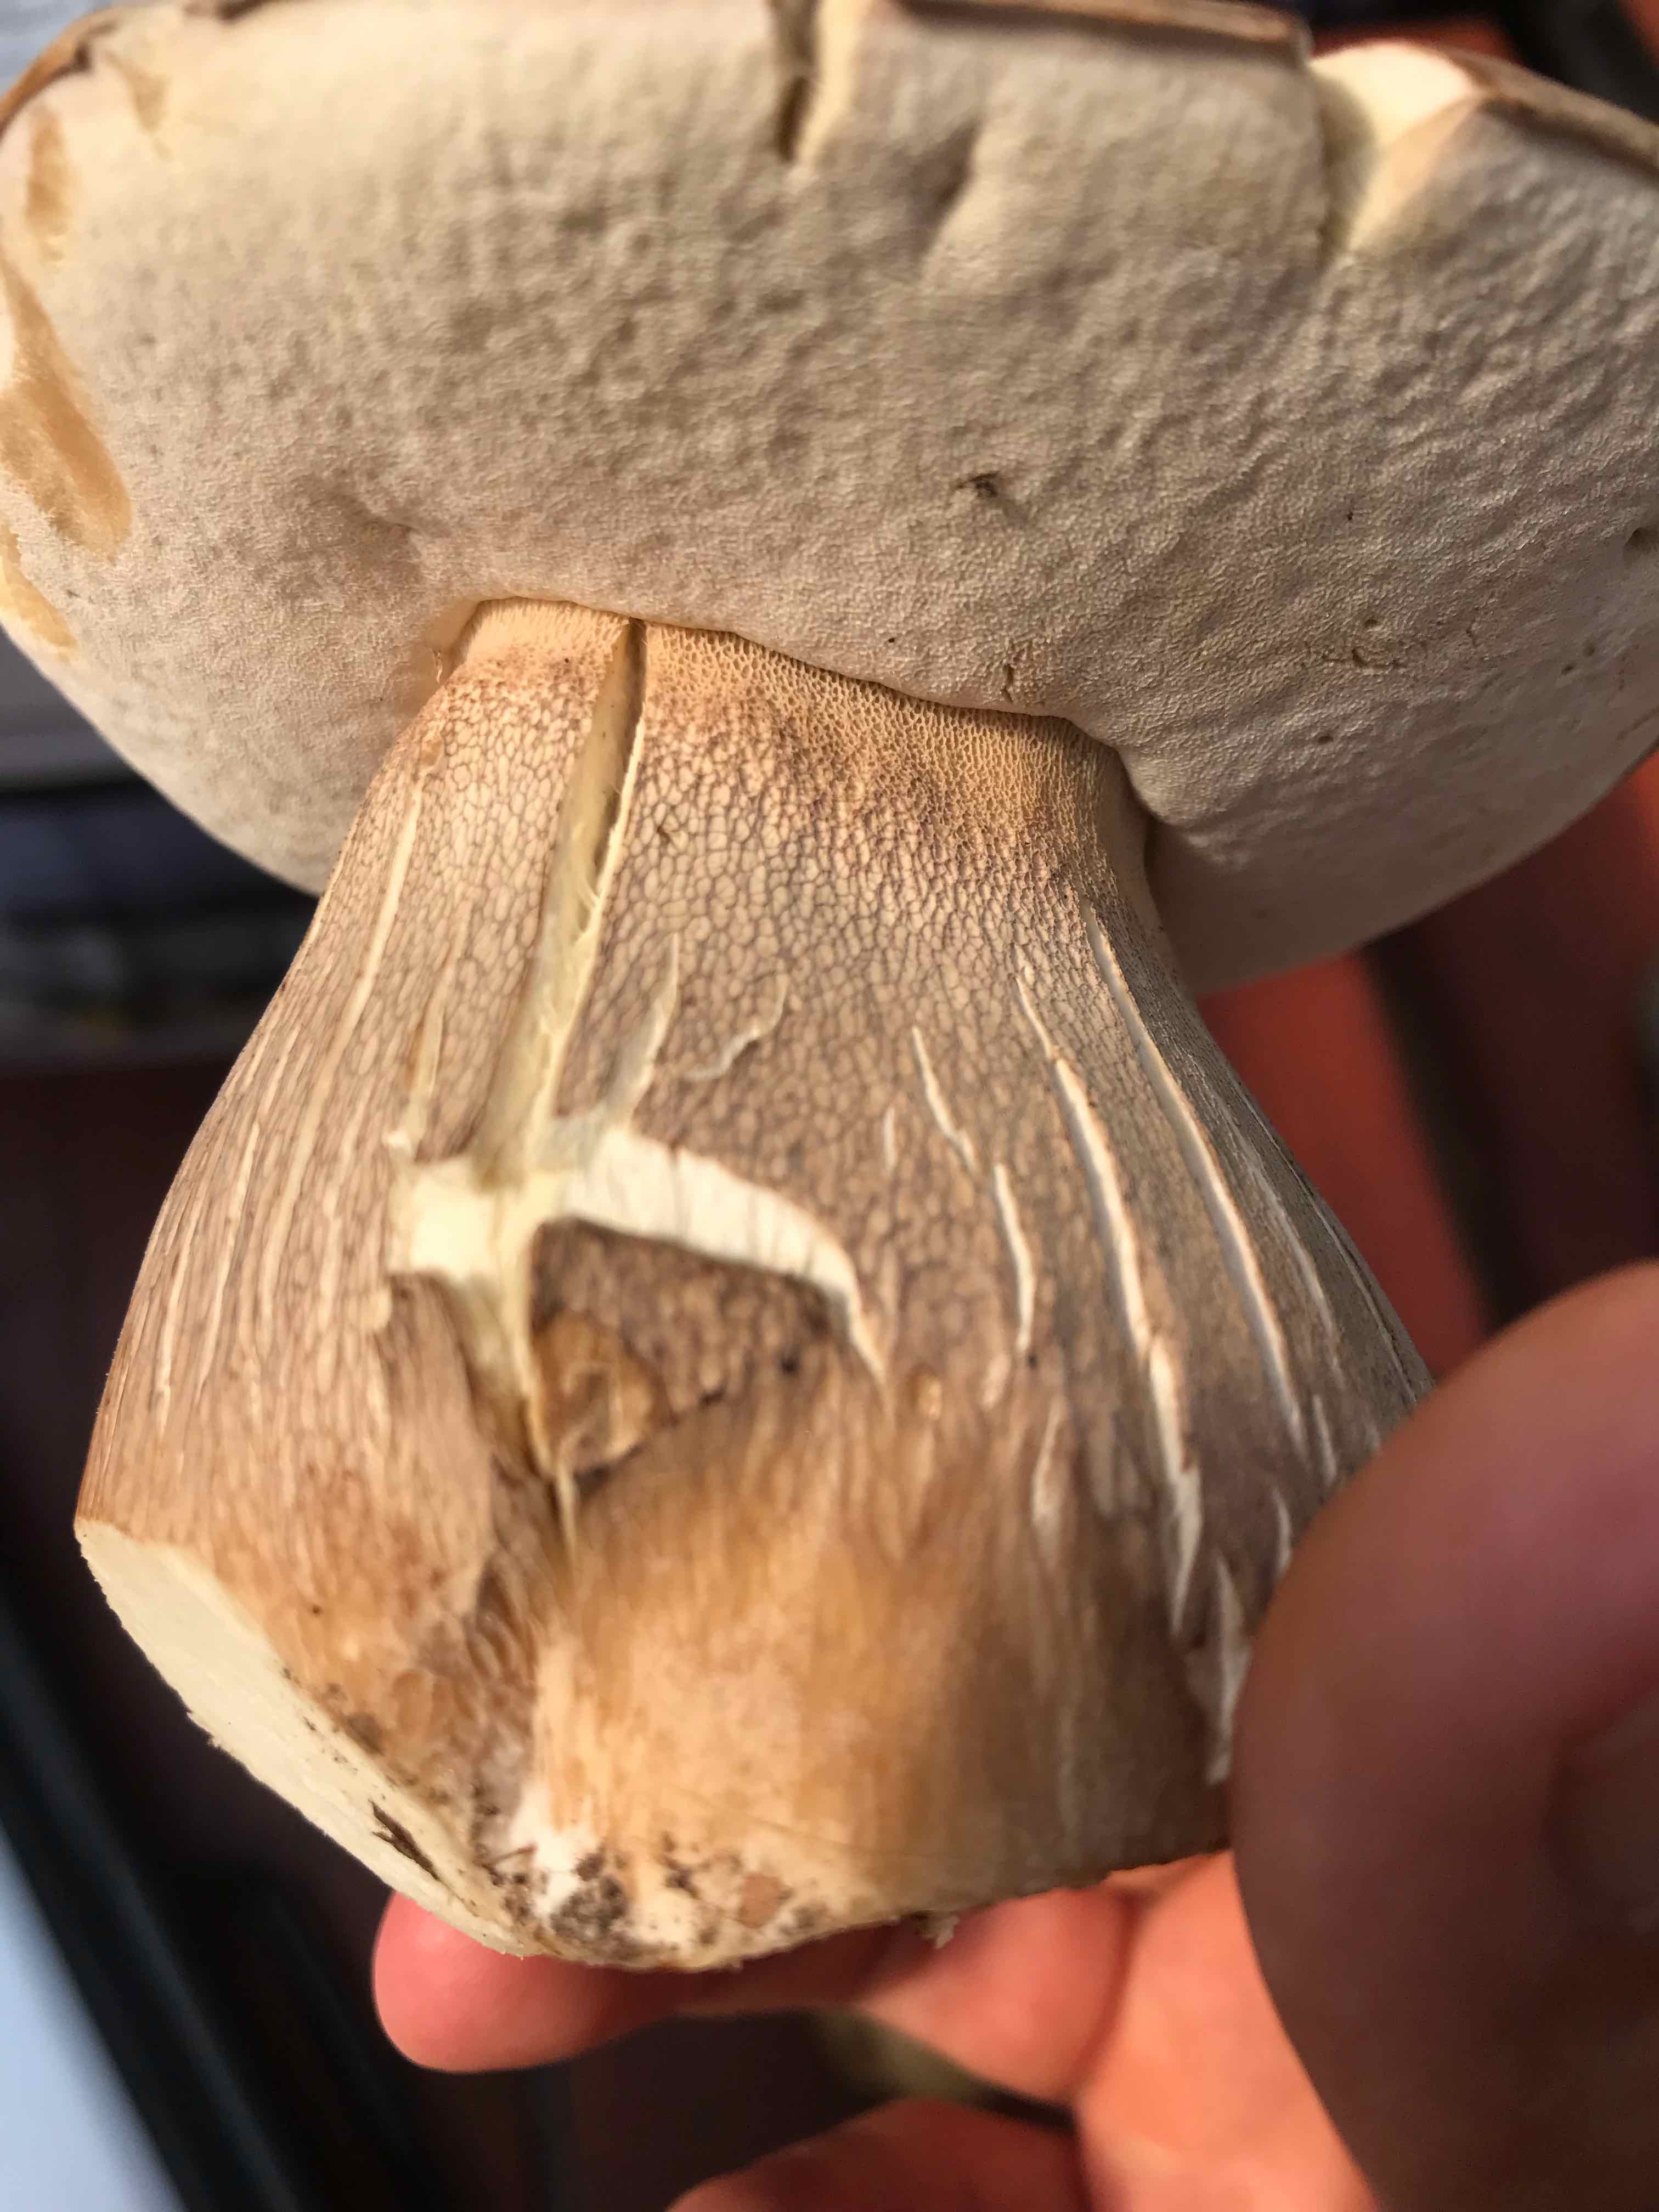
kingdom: Fungi
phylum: Basidiomycota
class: Agaricomycetes
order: Boletales
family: Boletaceae
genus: Boletus
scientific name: Boletus reticulatus
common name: sommer-rørhat
